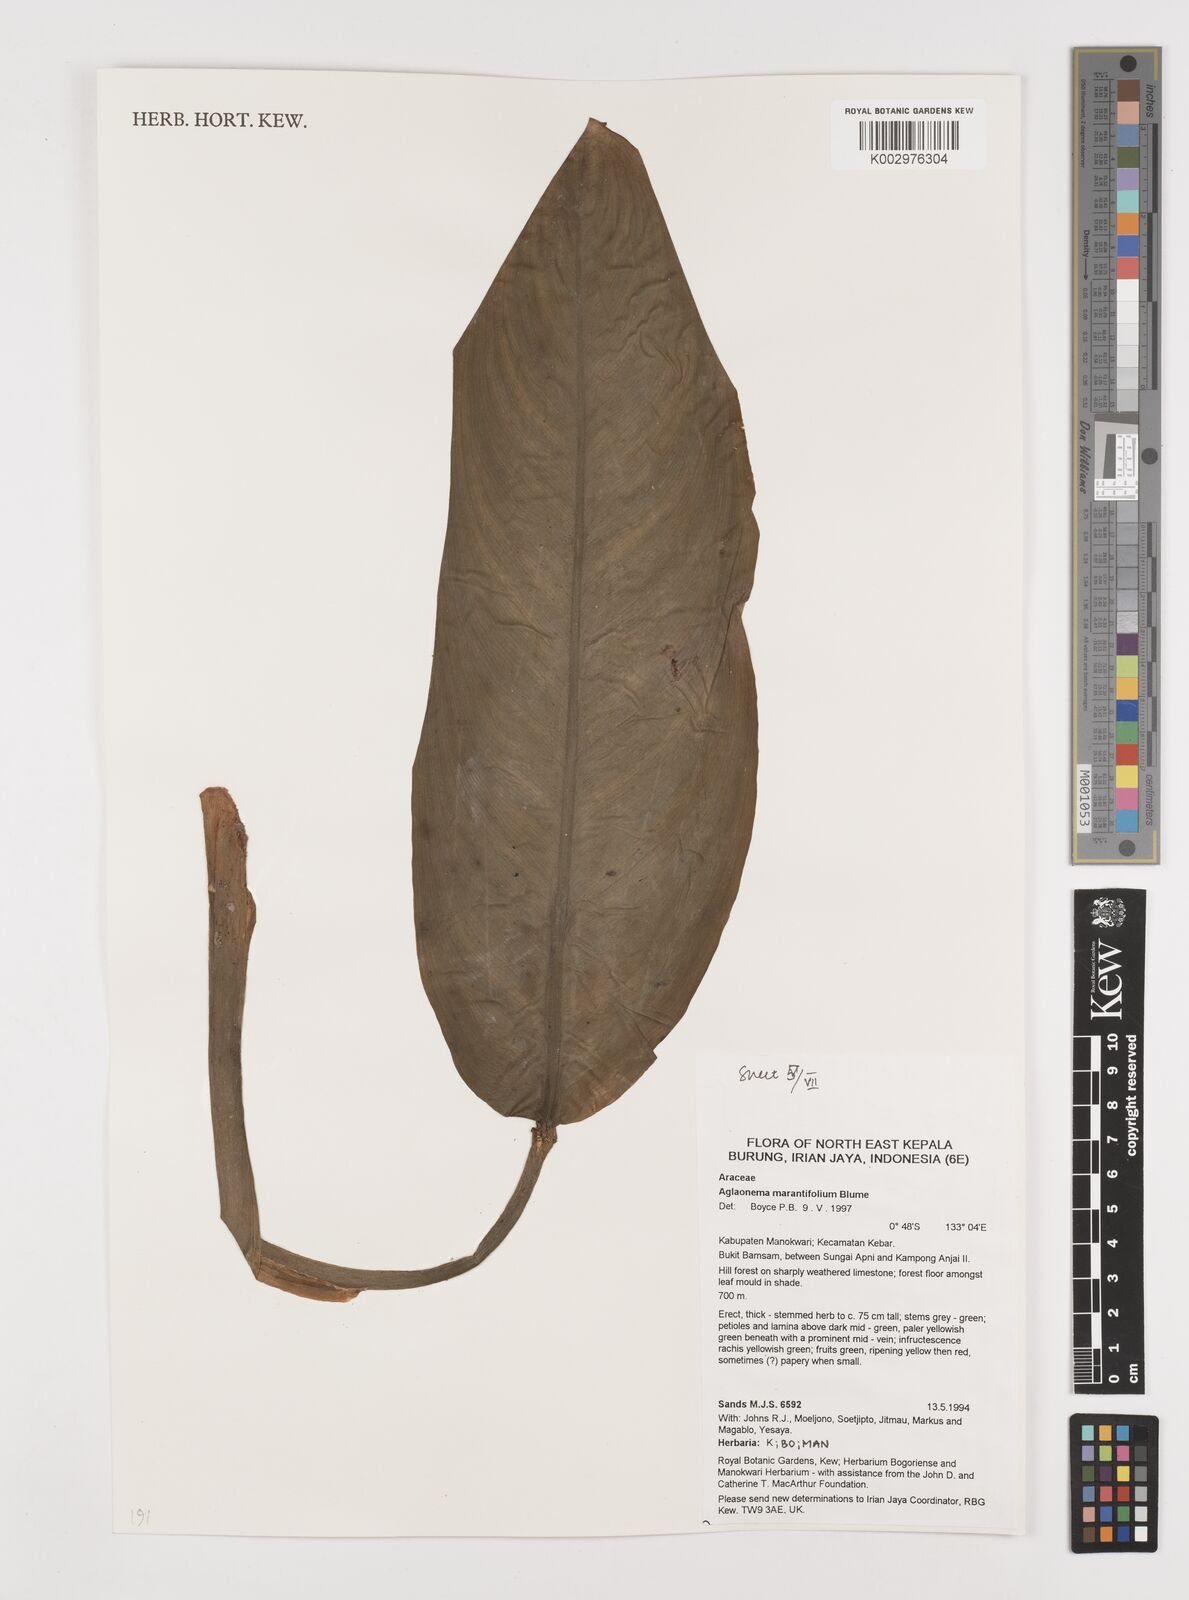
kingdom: Plantae
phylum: Tracheophyta
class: Liliopsida
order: Alismatales
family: Araceae
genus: Aglaonema
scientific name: Aglaonema marantifolium
